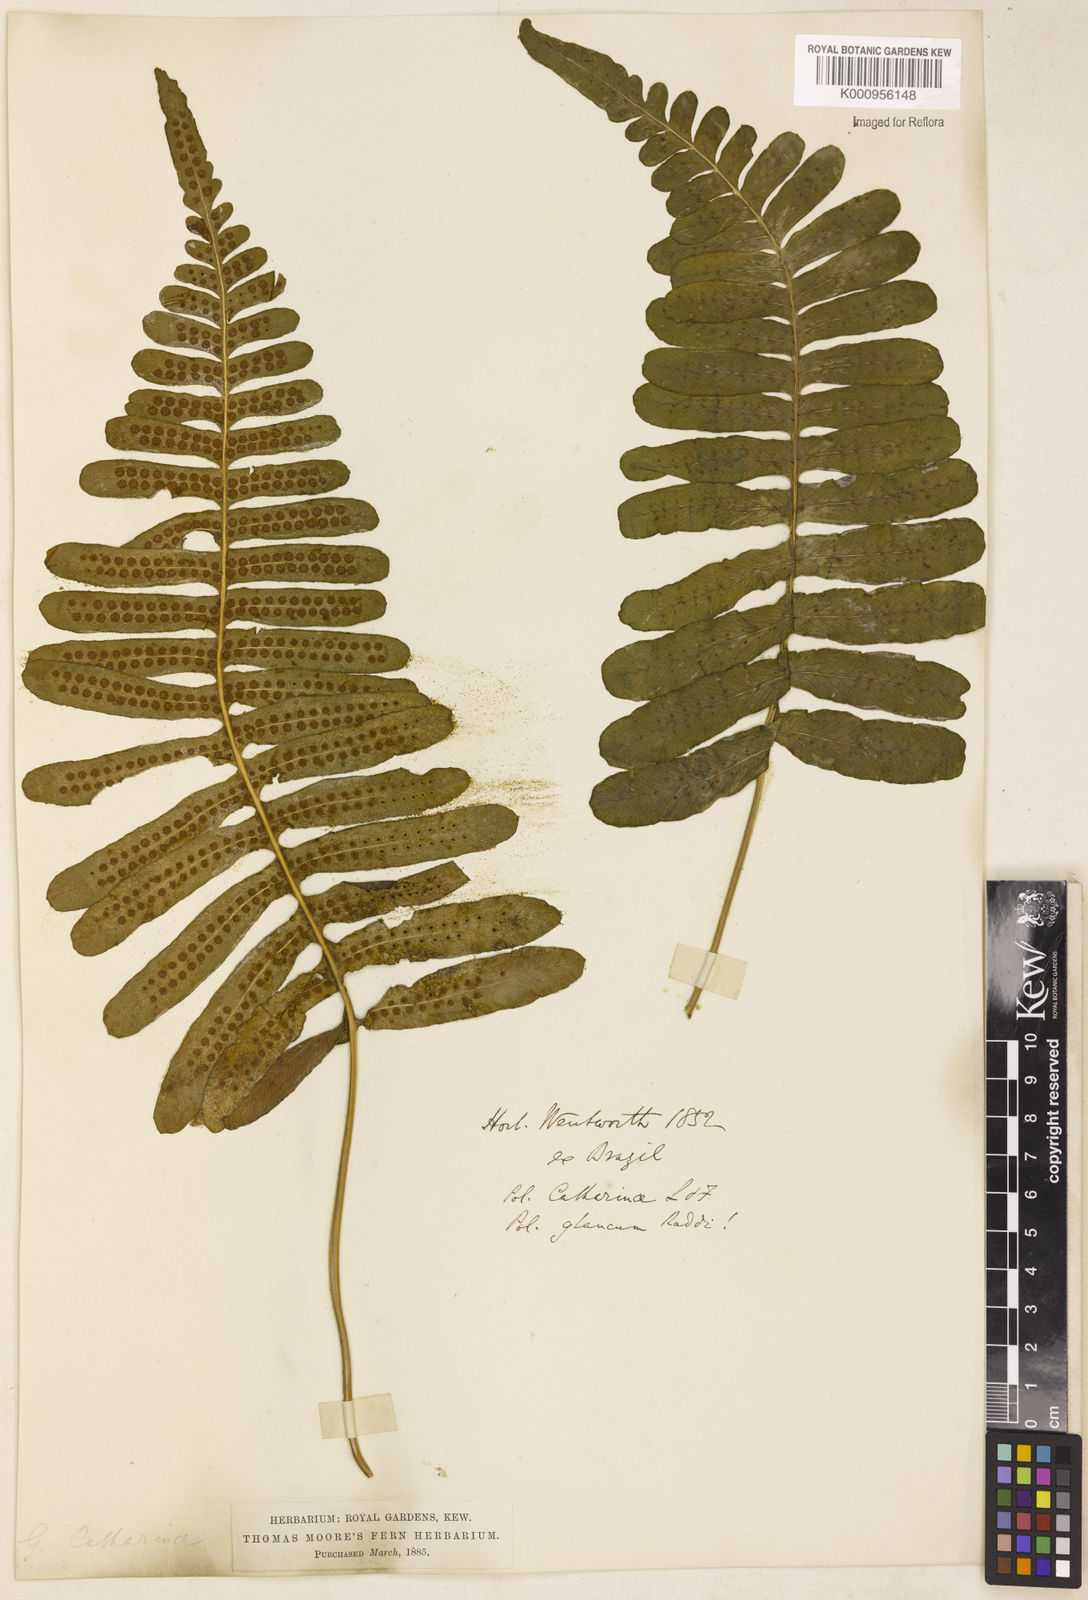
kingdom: Plantae
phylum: Tracheophyta
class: Polypodiopsida
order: Polypodiales
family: Polypodiaceae
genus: Serpocaulon
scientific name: Serpocaulon catharinae
